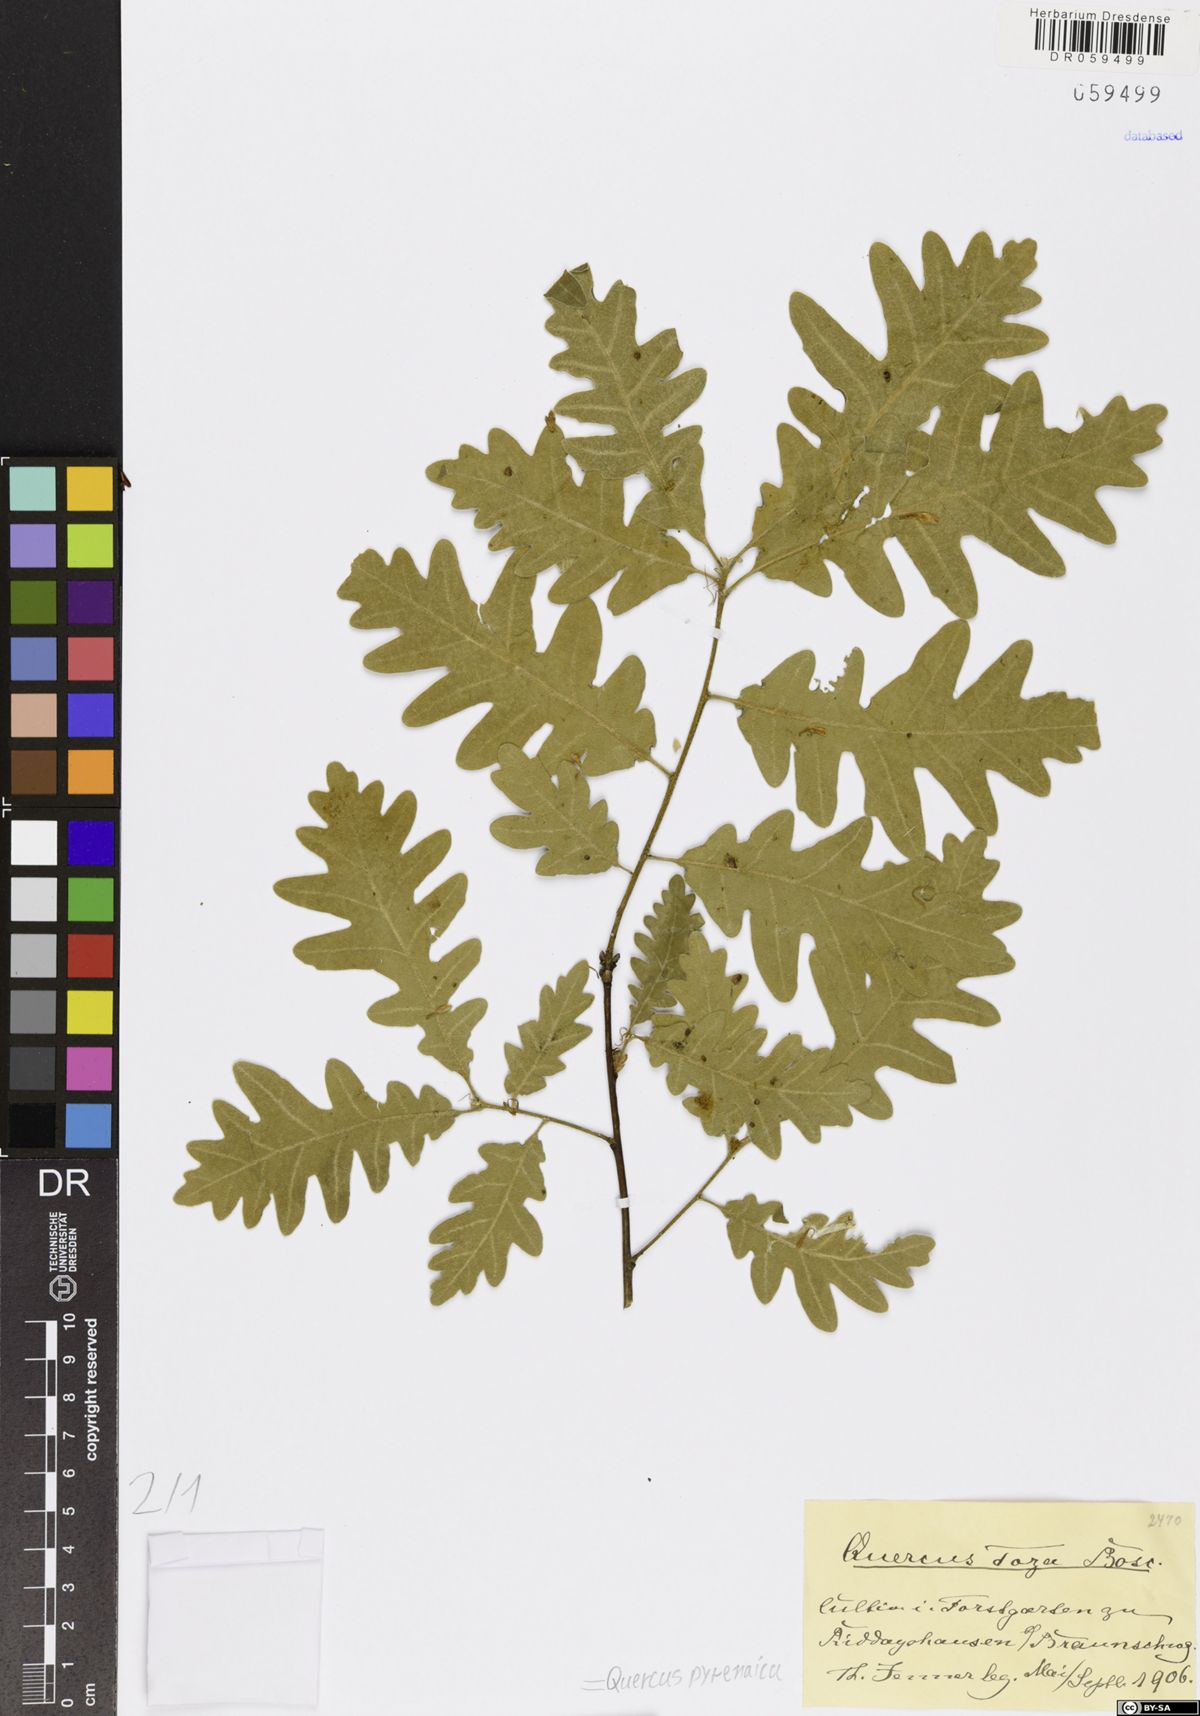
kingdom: Plantae
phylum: Tracheophyta
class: Magnoliopsida
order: Fagales
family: Fagaceae
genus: Quercus
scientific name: Quercus pyrenaica
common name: Pyrenean oak
